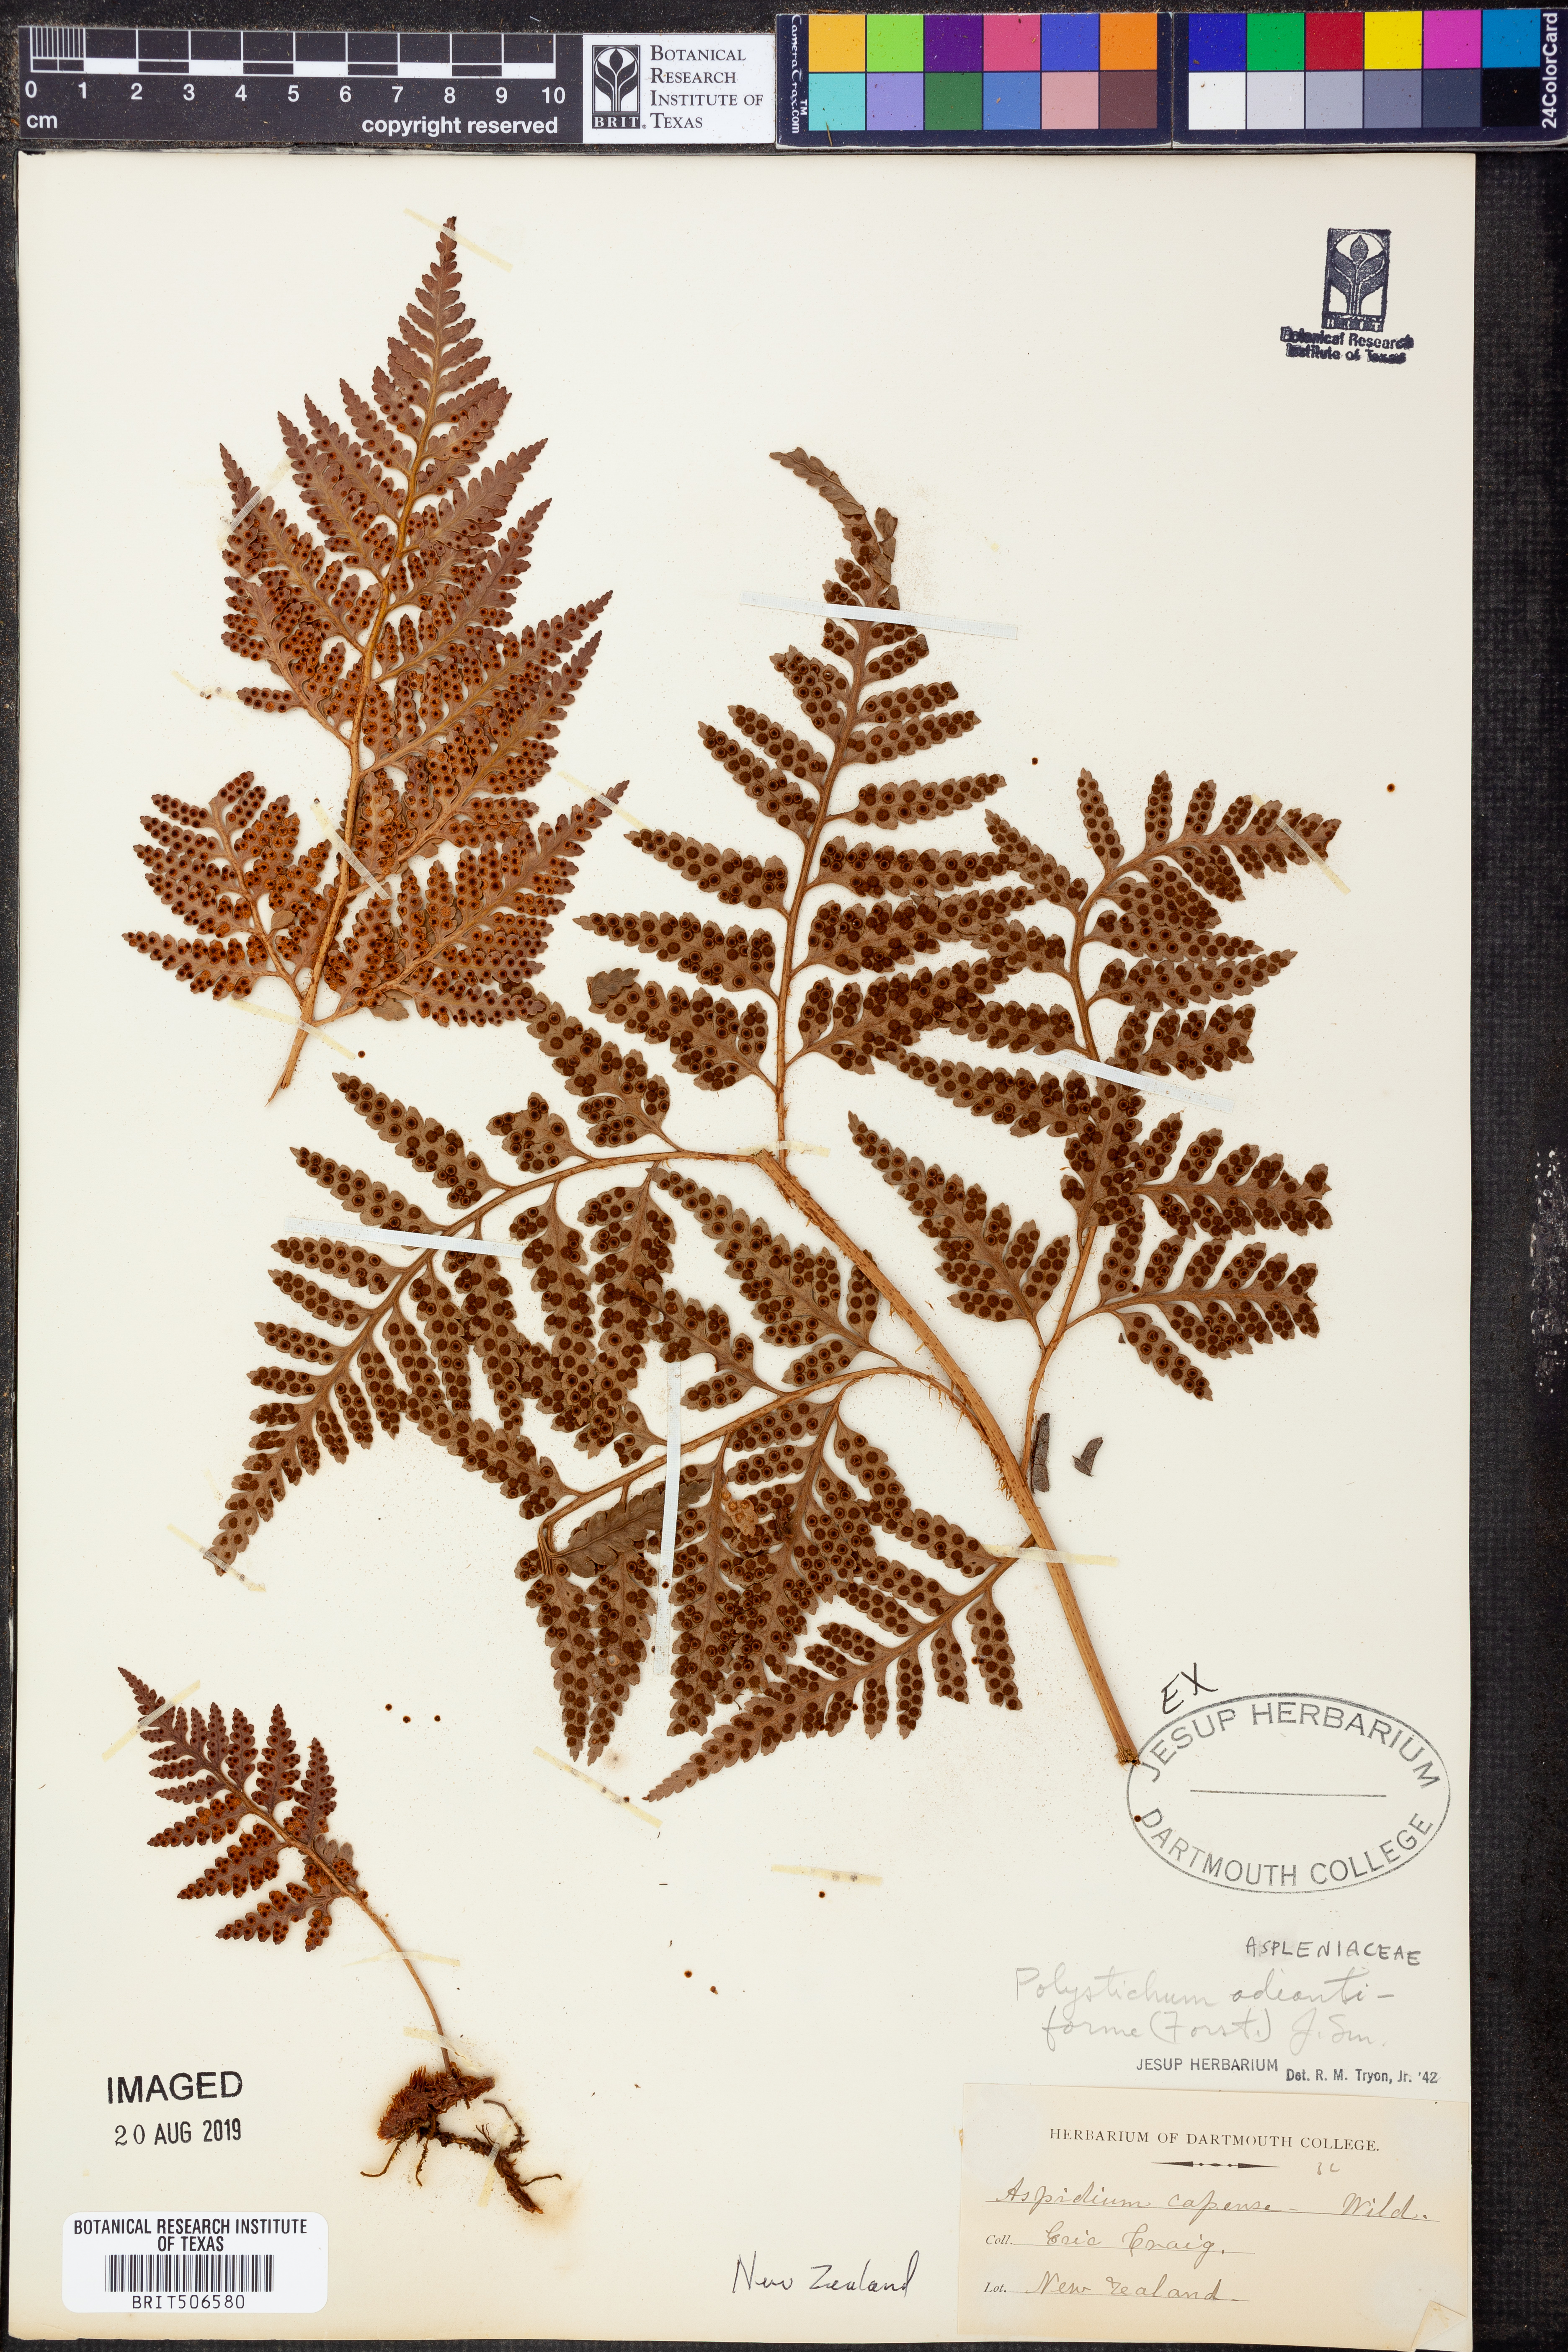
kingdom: Plantae
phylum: Tracheophyta
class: Polypodiopsida
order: Polypodiales
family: Dryopteridaceae
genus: Rumohra
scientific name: Rumohra adiantiformis
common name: Leather fern
